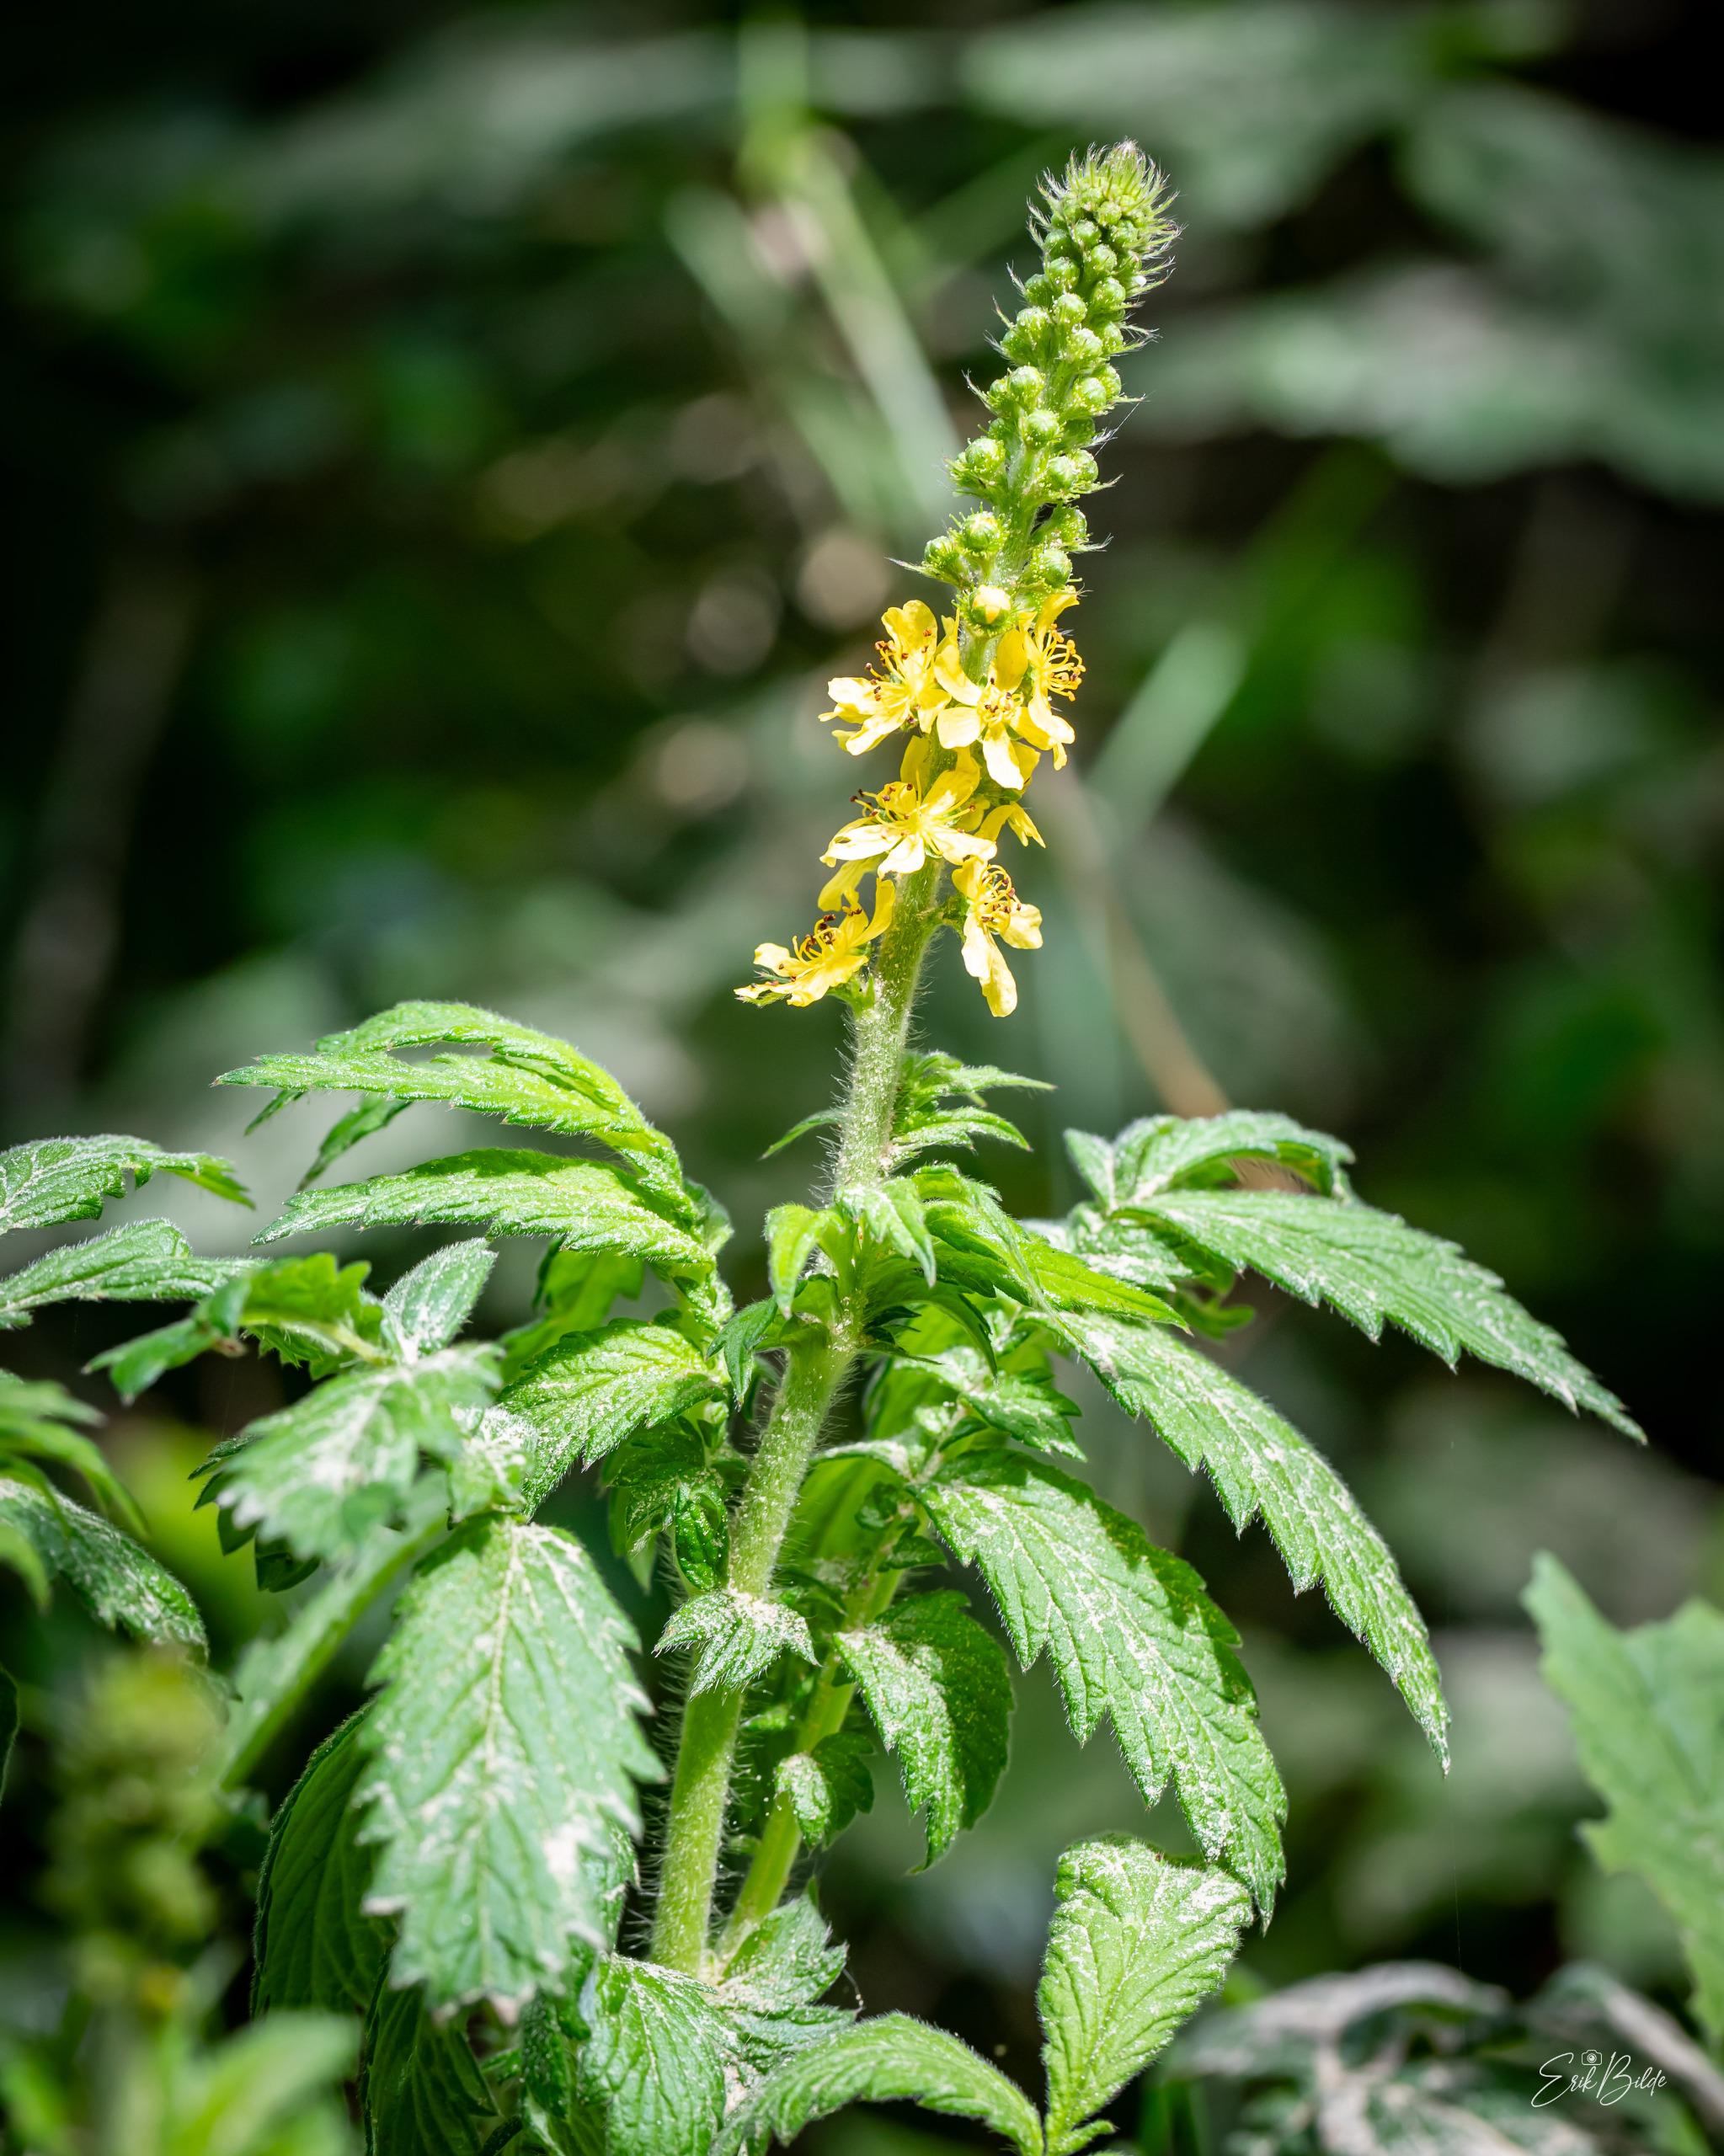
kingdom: Plantae
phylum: Tracheophyta
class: Magnoliopsida
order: Rosales
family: Rosaceae
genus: Agrimonia
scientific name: Agrimonia eupatoria
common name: Almindelig agermåne
